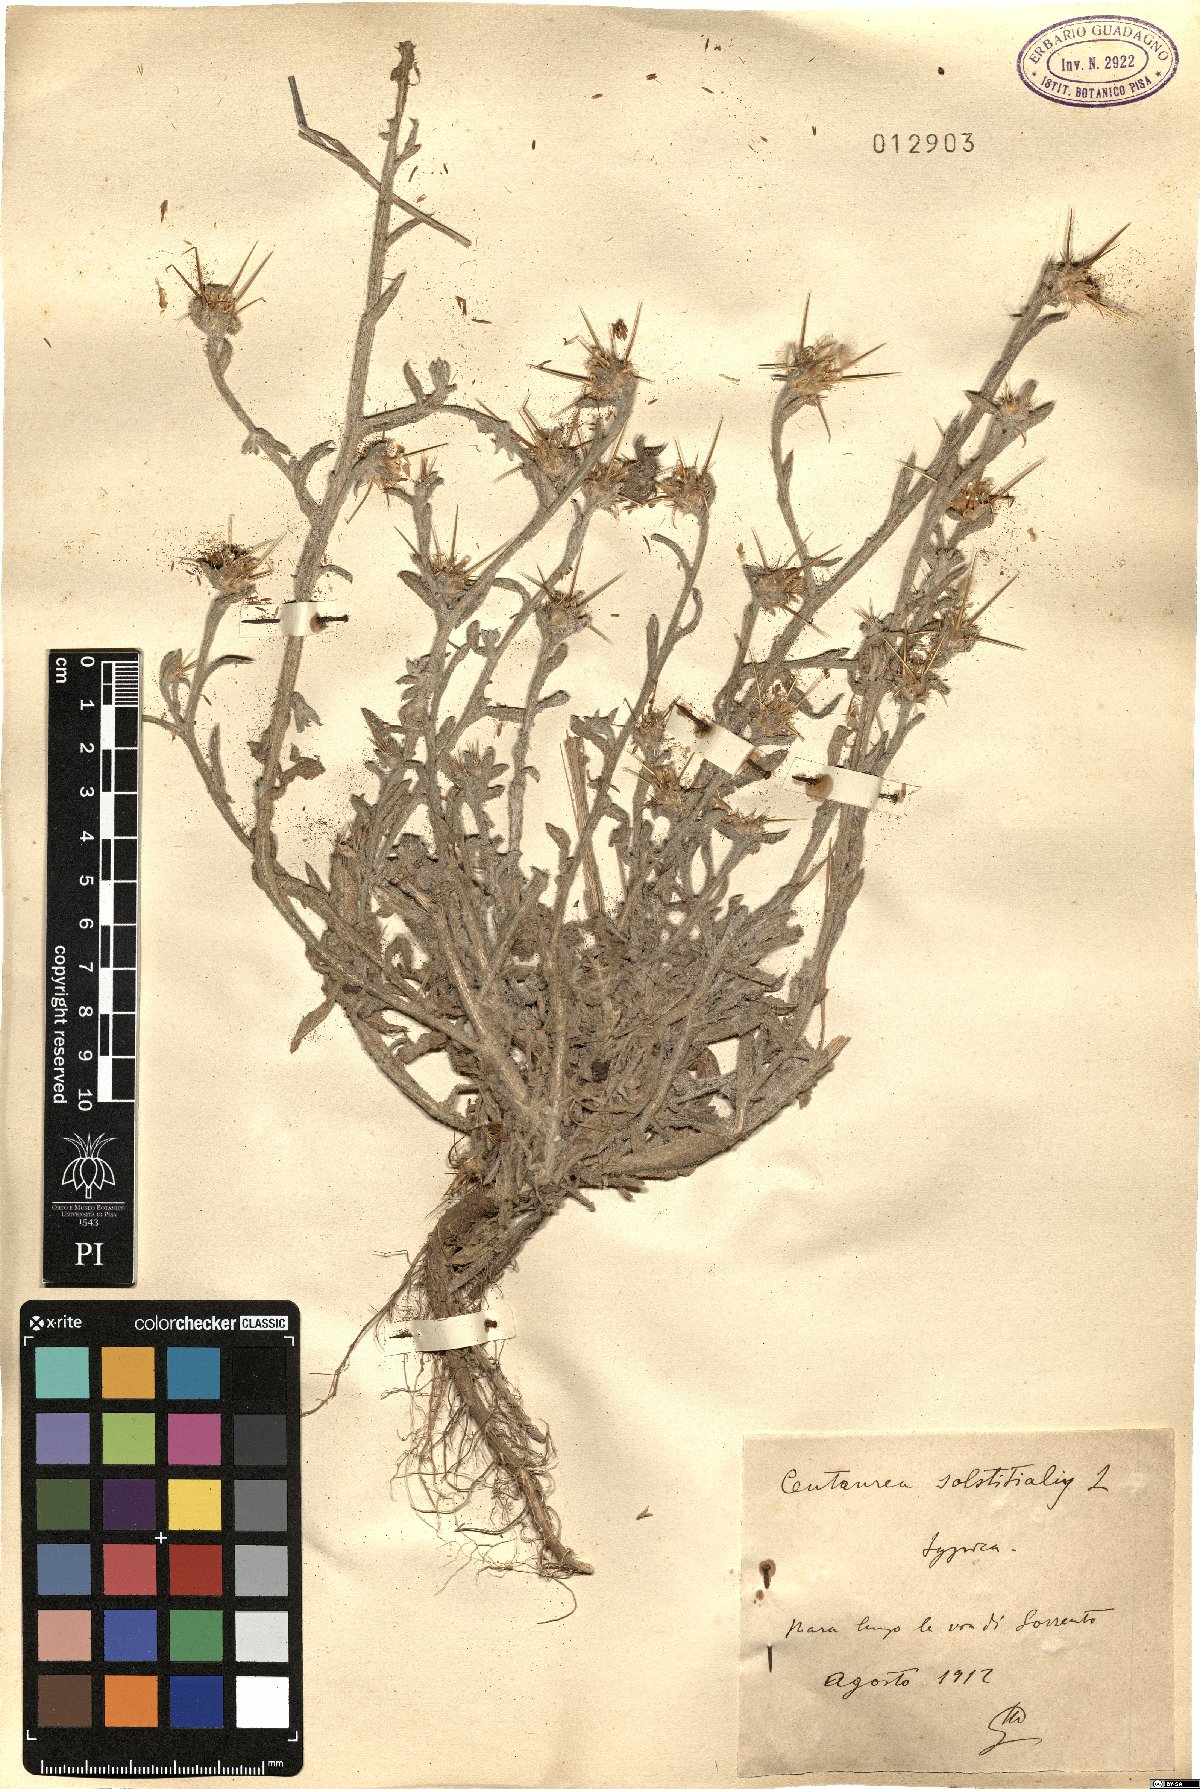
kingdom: Plantae
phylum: Tracheophyta
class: Magnoliopsida
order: Asterales
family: Asteraceae
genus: Centaurea
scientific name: Centaurea solstitialis
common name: Yellow star-thistle
